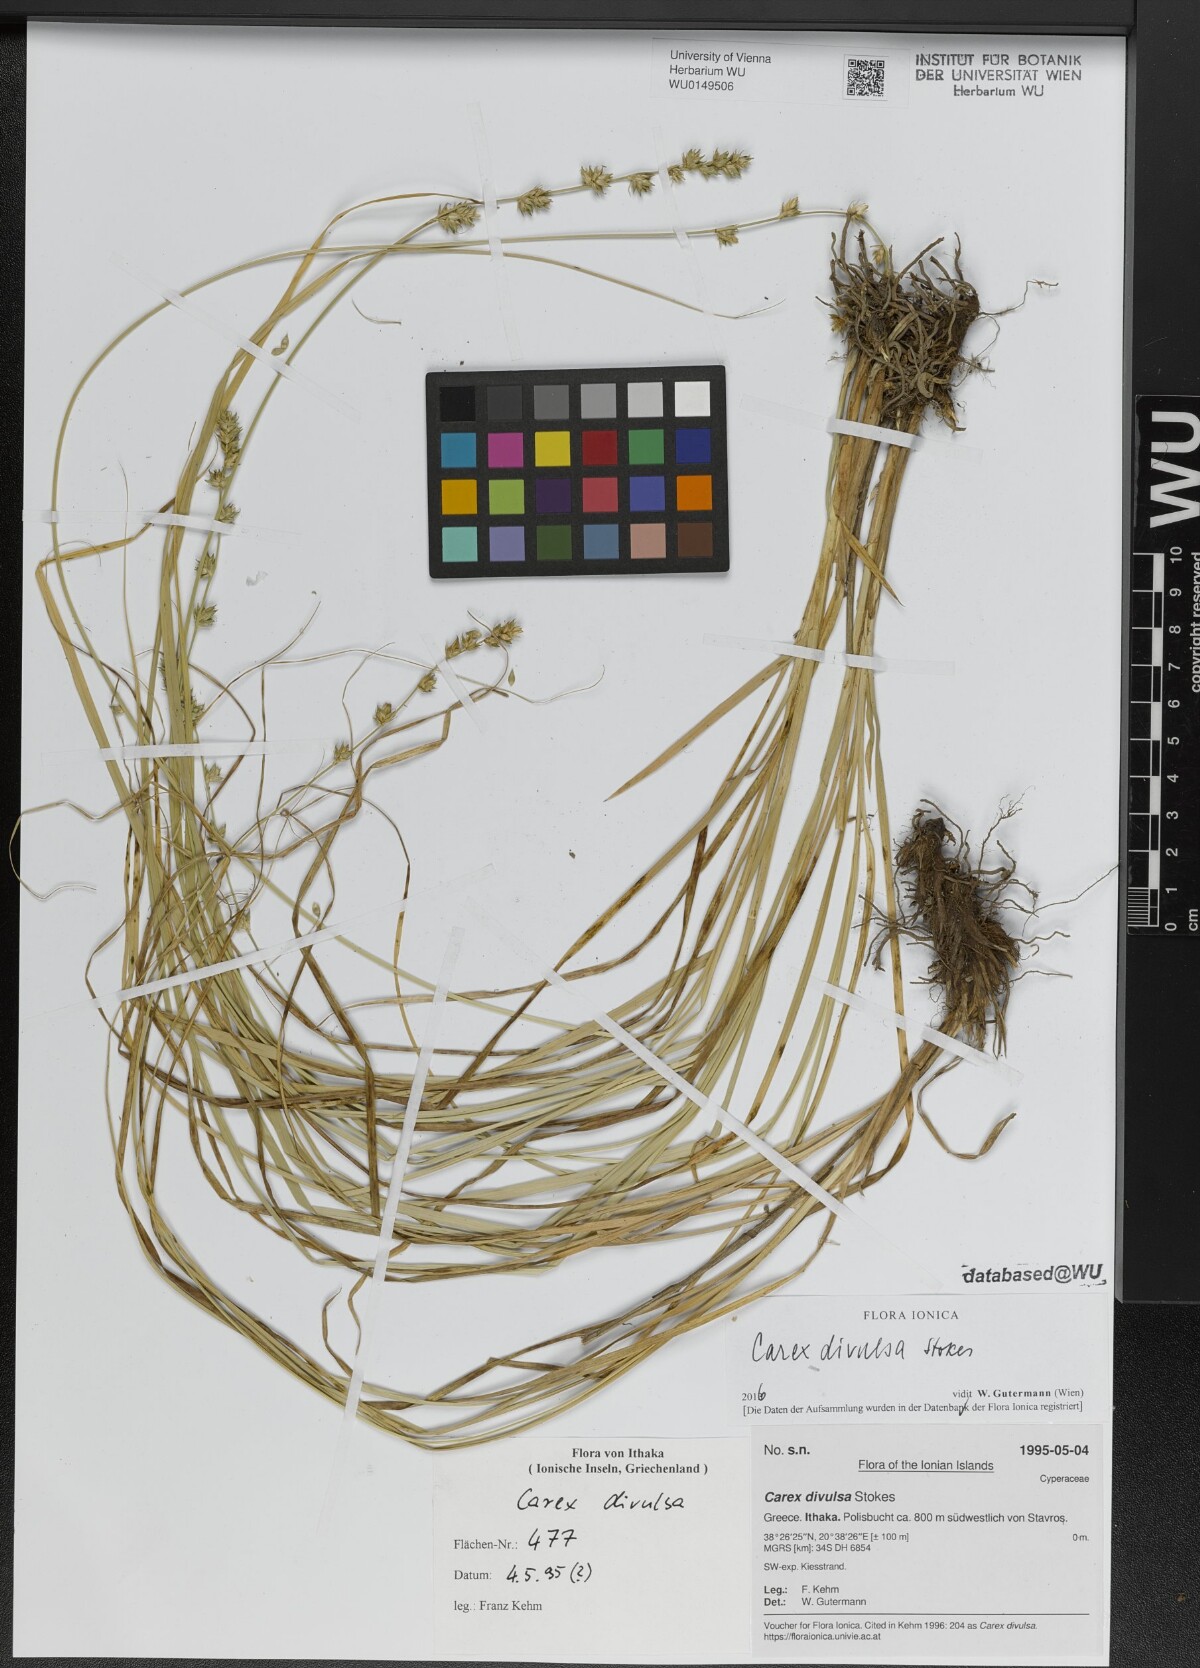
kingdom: Plantae
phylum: Tracheophyta
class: Liliopsida
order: Poales
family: Cyperaceae
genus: Carex
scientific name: Carex divulsa
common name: Grassland sedge
